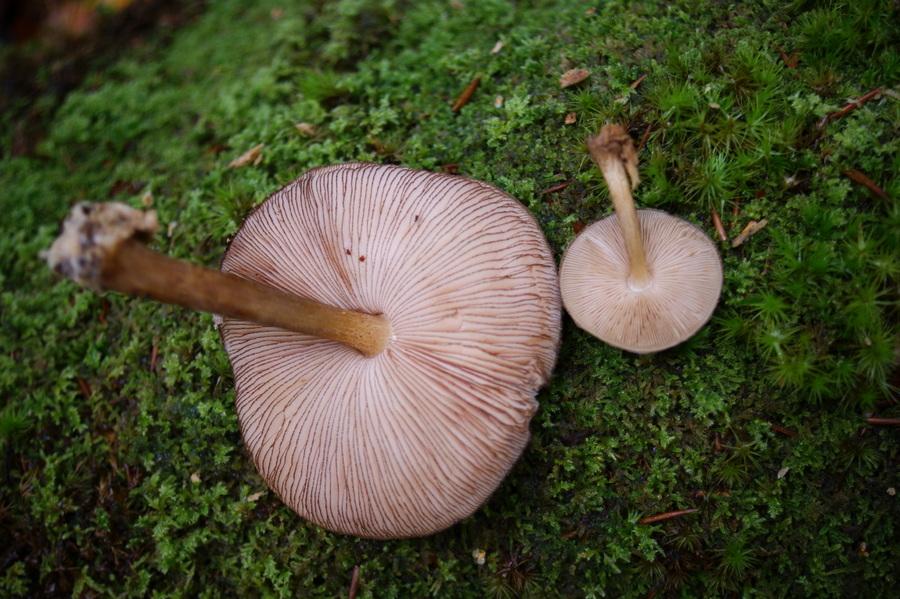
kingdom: Fungi
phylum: Basidiomycota
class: Agaricomycetes
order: Agaricales
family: Pluteaceae
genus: Pluteus
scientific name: Pluteus umbrosus
